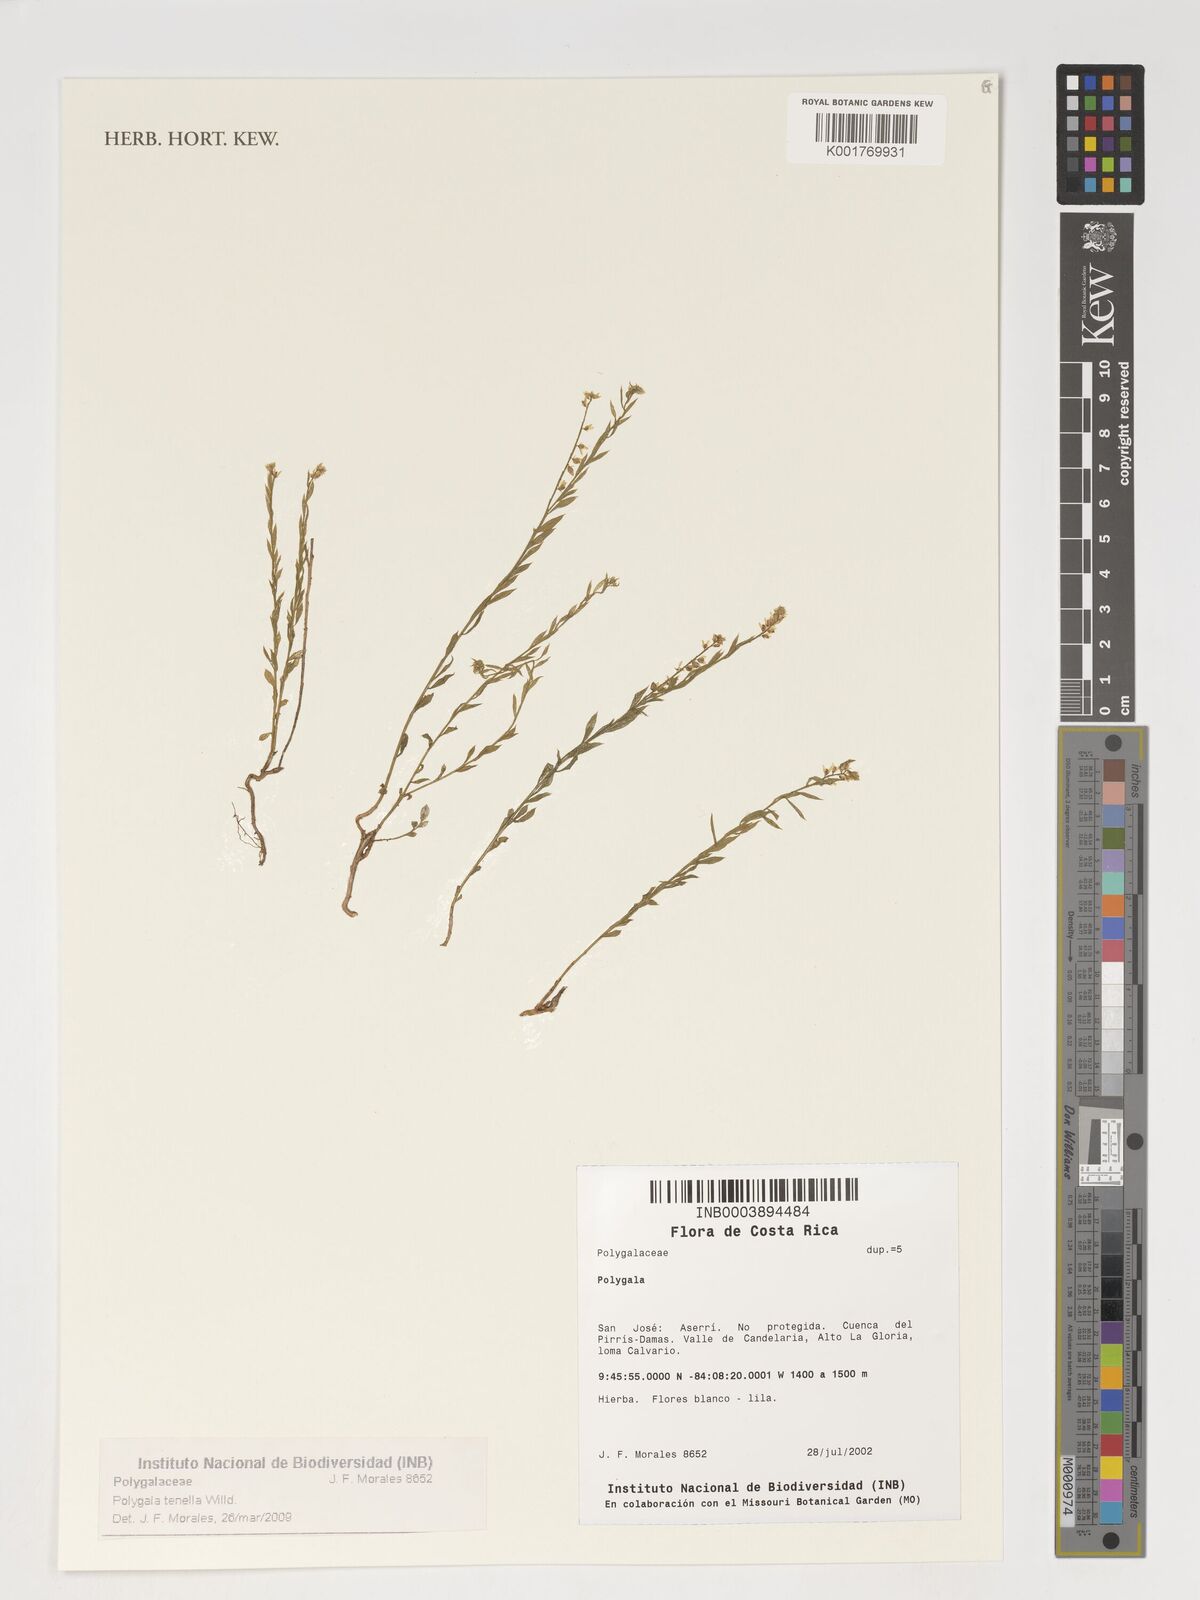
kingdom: Plantae
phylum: Tracheophyta
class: Magnoliopsida
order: Fabales
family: Polygalaceae
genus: Polygala
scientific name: Polygala tenella
